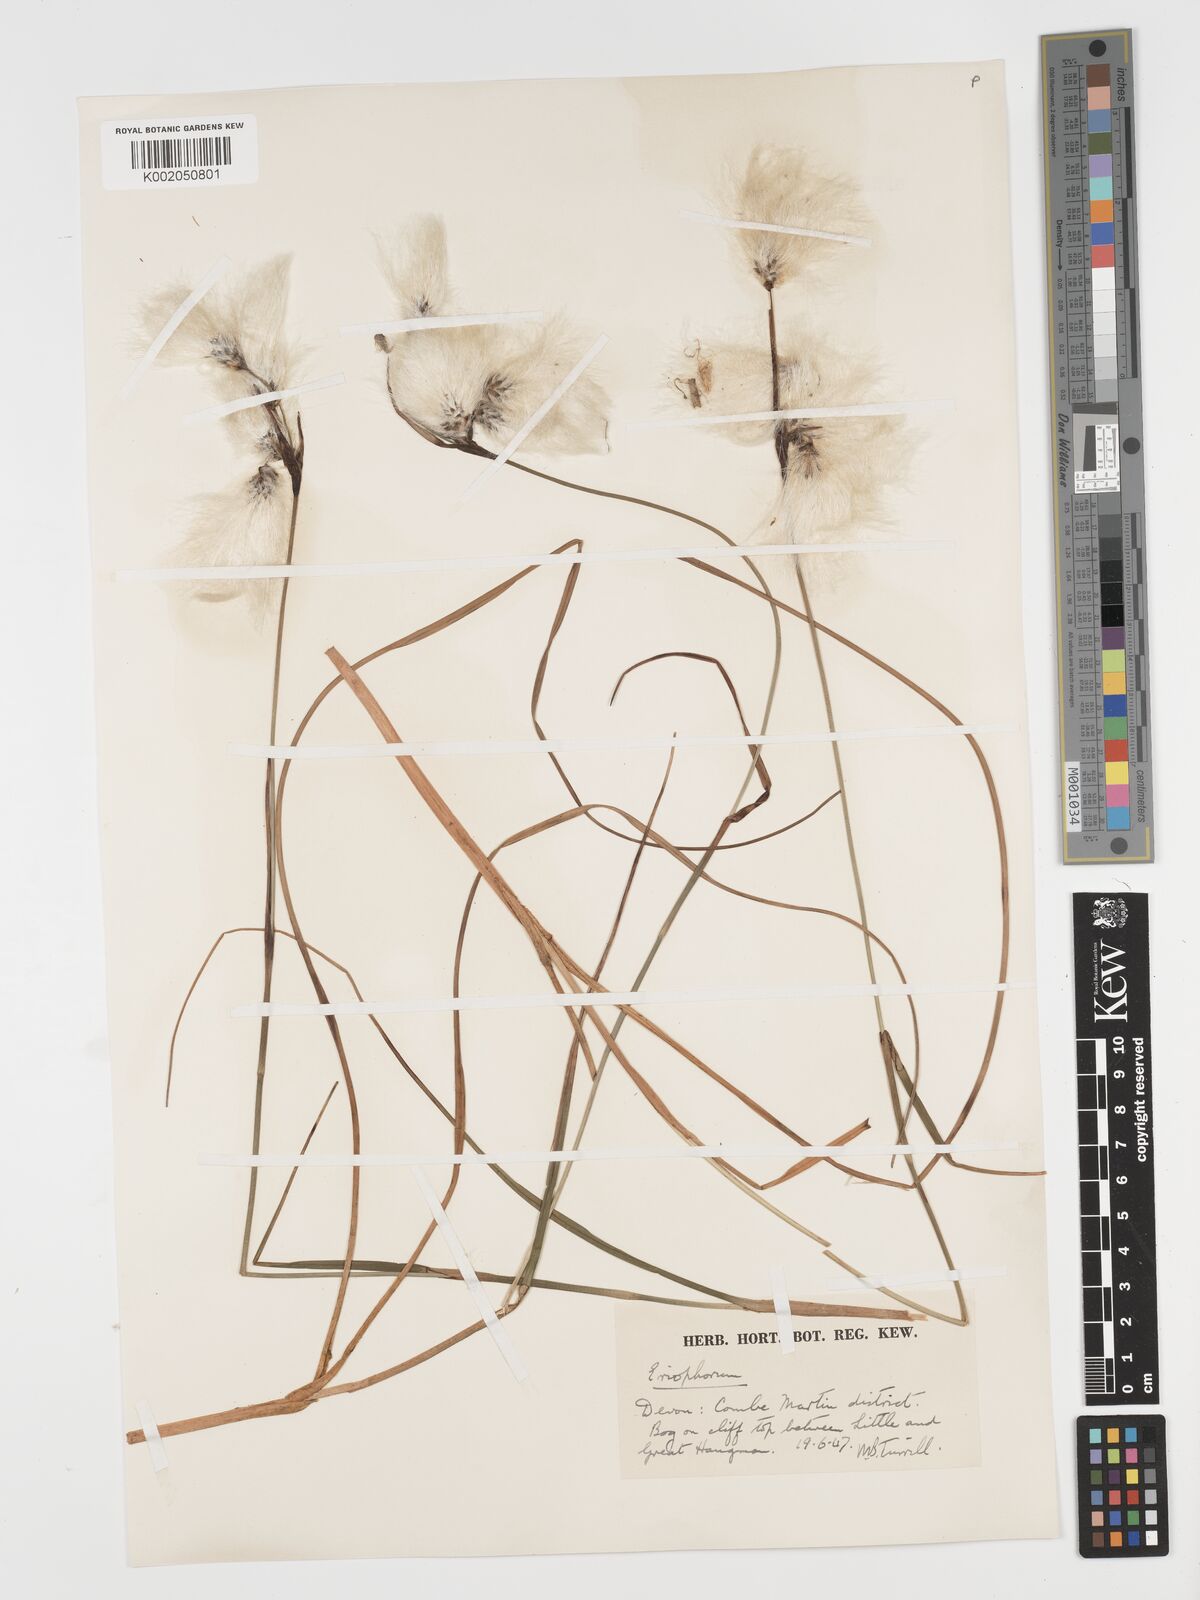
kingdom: Plantae
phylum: Tracheophyta
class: Liliopsida
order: Poales
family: Cyperaceae
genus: Eriophorum
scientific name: Eriophorum angustifolium
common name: Common cottongrass
